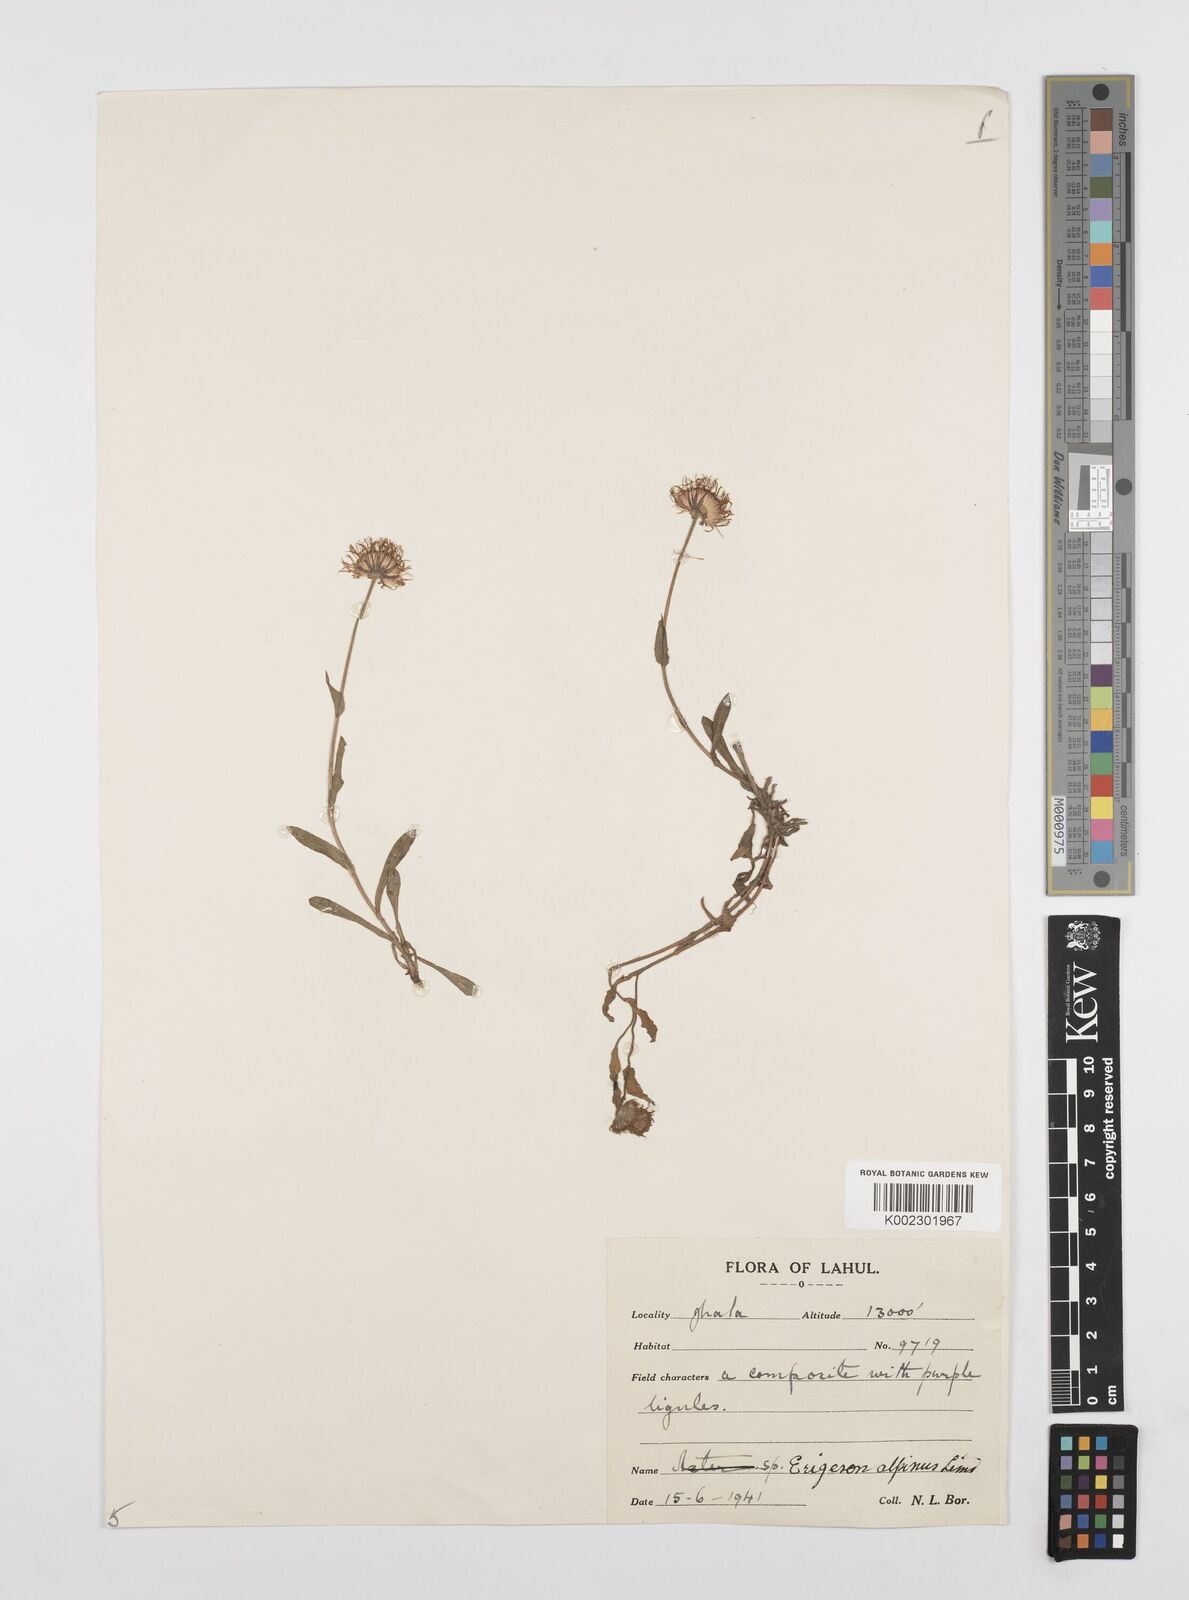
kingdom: Plantae
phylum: Tracheophyta
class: Magnoliopsida
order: Asterales
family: Asteraceae
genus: Erigeron
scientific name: Erigeron alpinus
